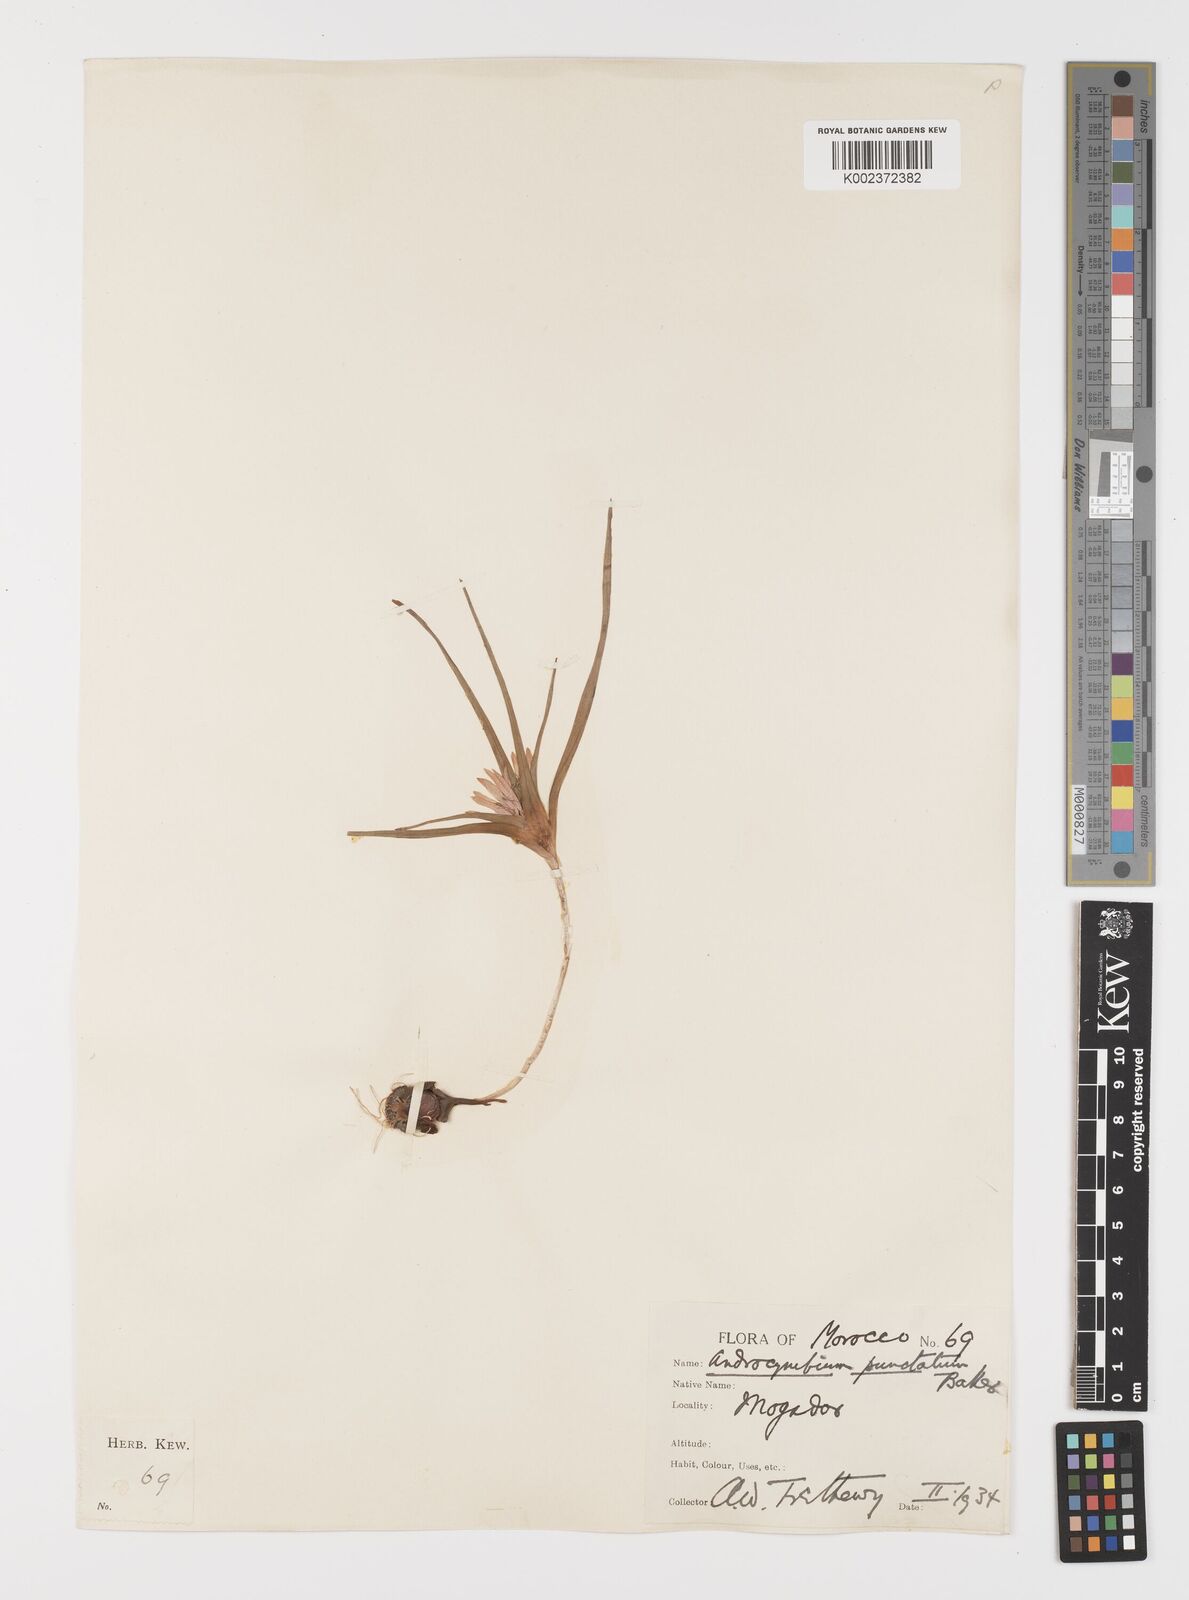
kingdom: Plantae
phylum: Tracheophyta
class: Liliopsida
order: Liliales
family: Colchicaceae
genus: Colchicum
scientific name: Colchicum gramineum
